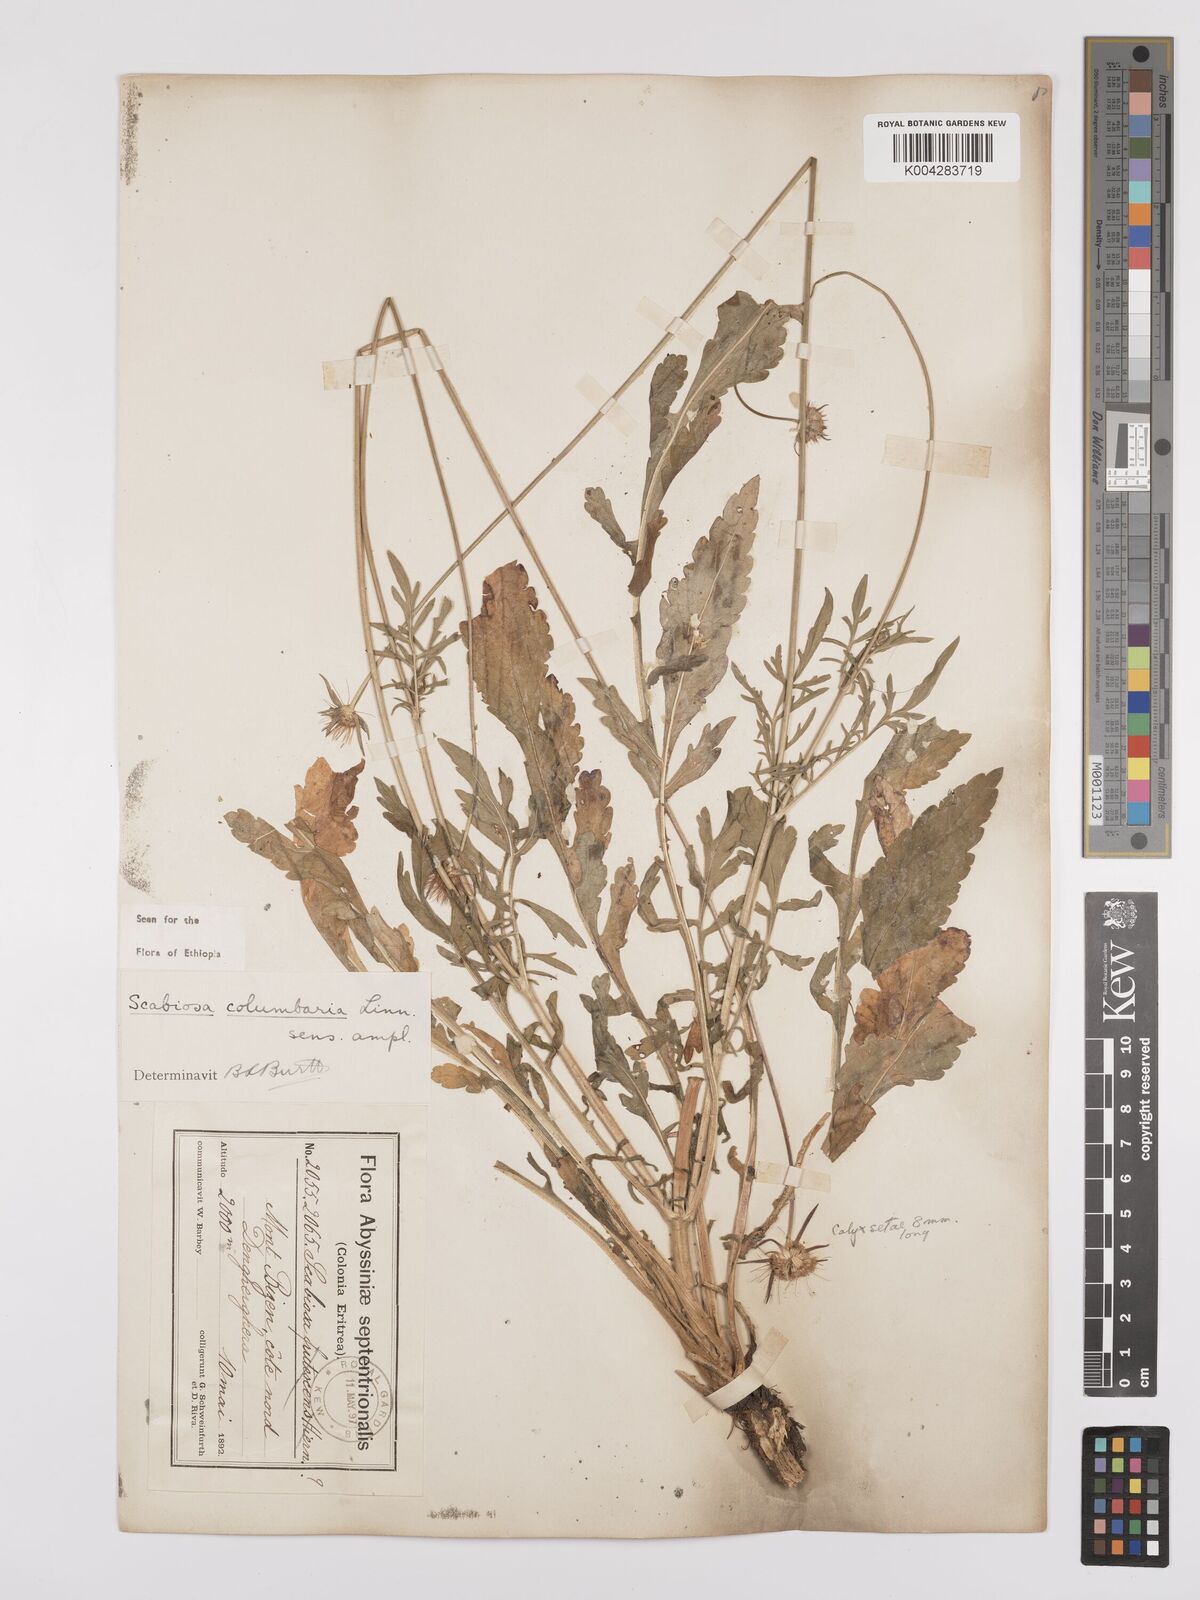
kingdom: Plantae
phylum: Tracheophyta
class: Magnoliopsida
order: Dipsacales
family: Caprifoliaceae
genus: Scabiosa
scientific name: Scabiosa columbaria
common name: Small scabious
